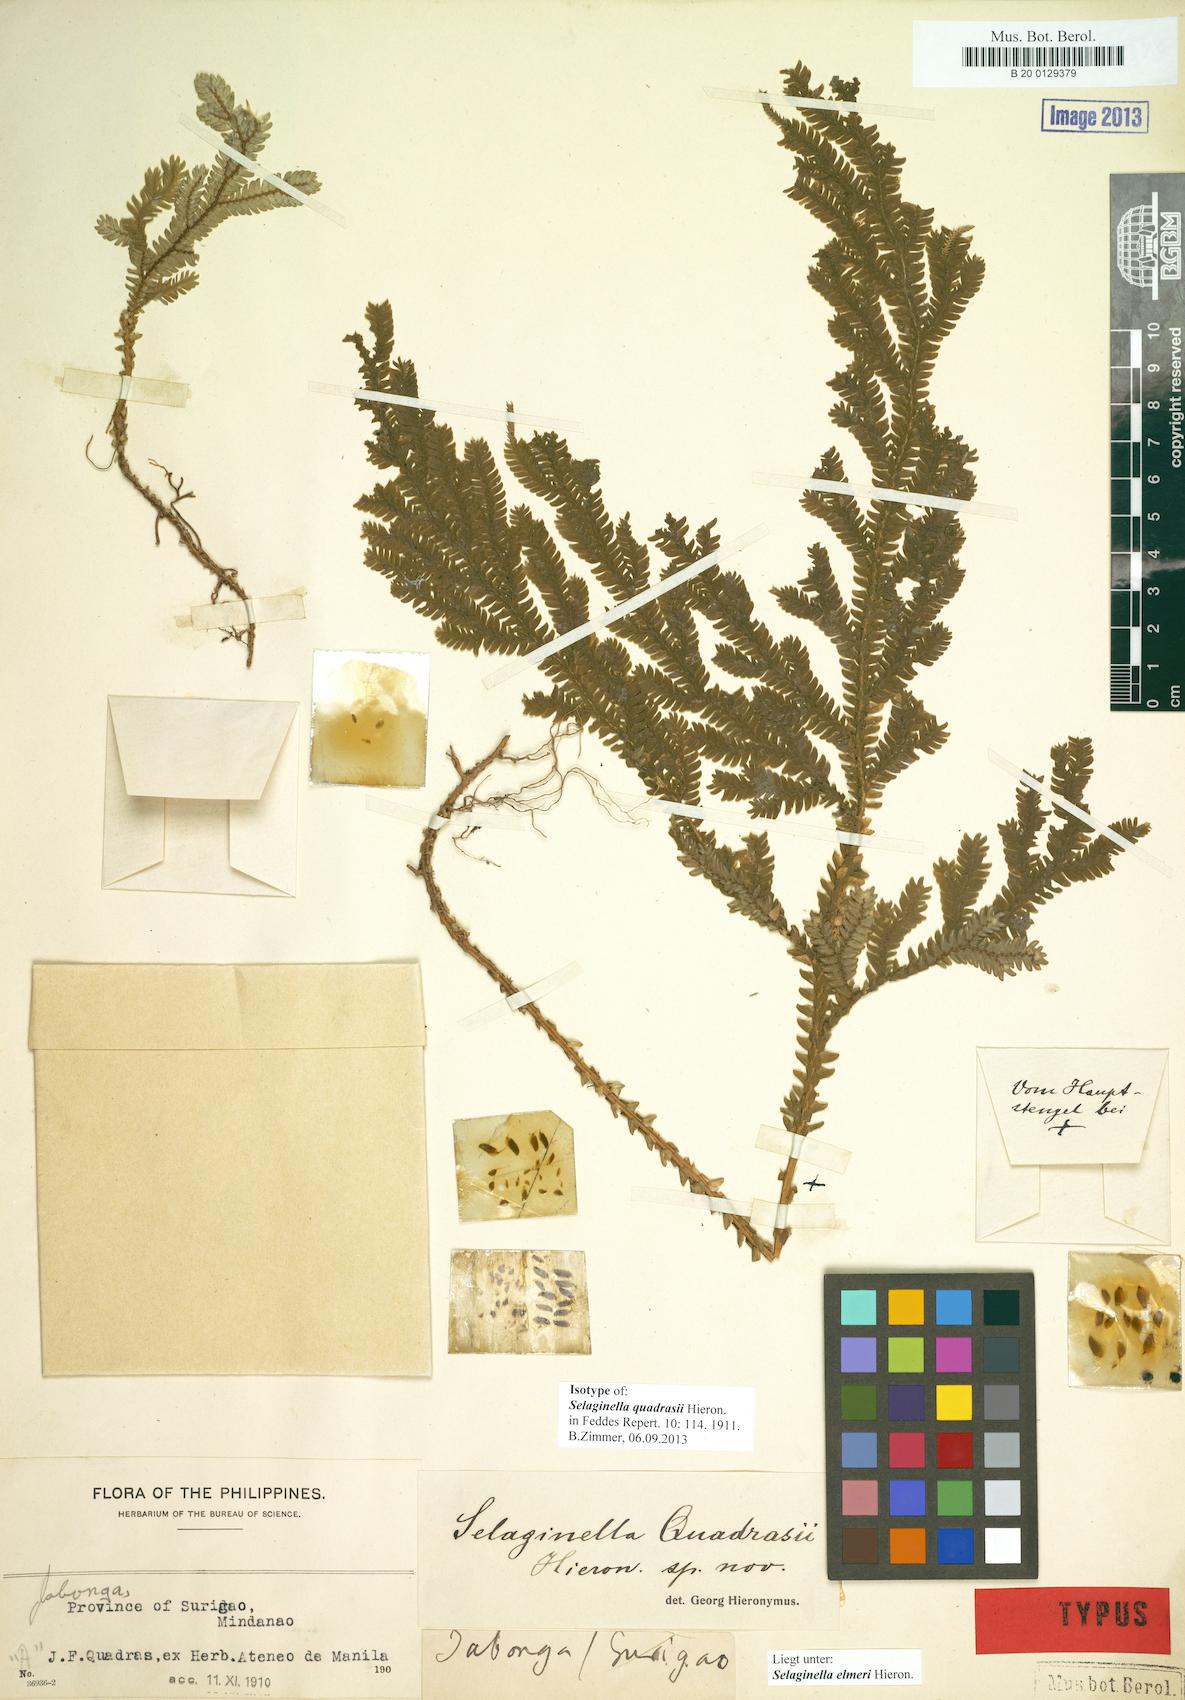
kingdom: Plantae
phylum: Tracheophyta
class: Lycopodiopsida
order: Selaginellales
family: Selaginellaceae
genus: Selaginella
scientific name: Selaginella elmeri
